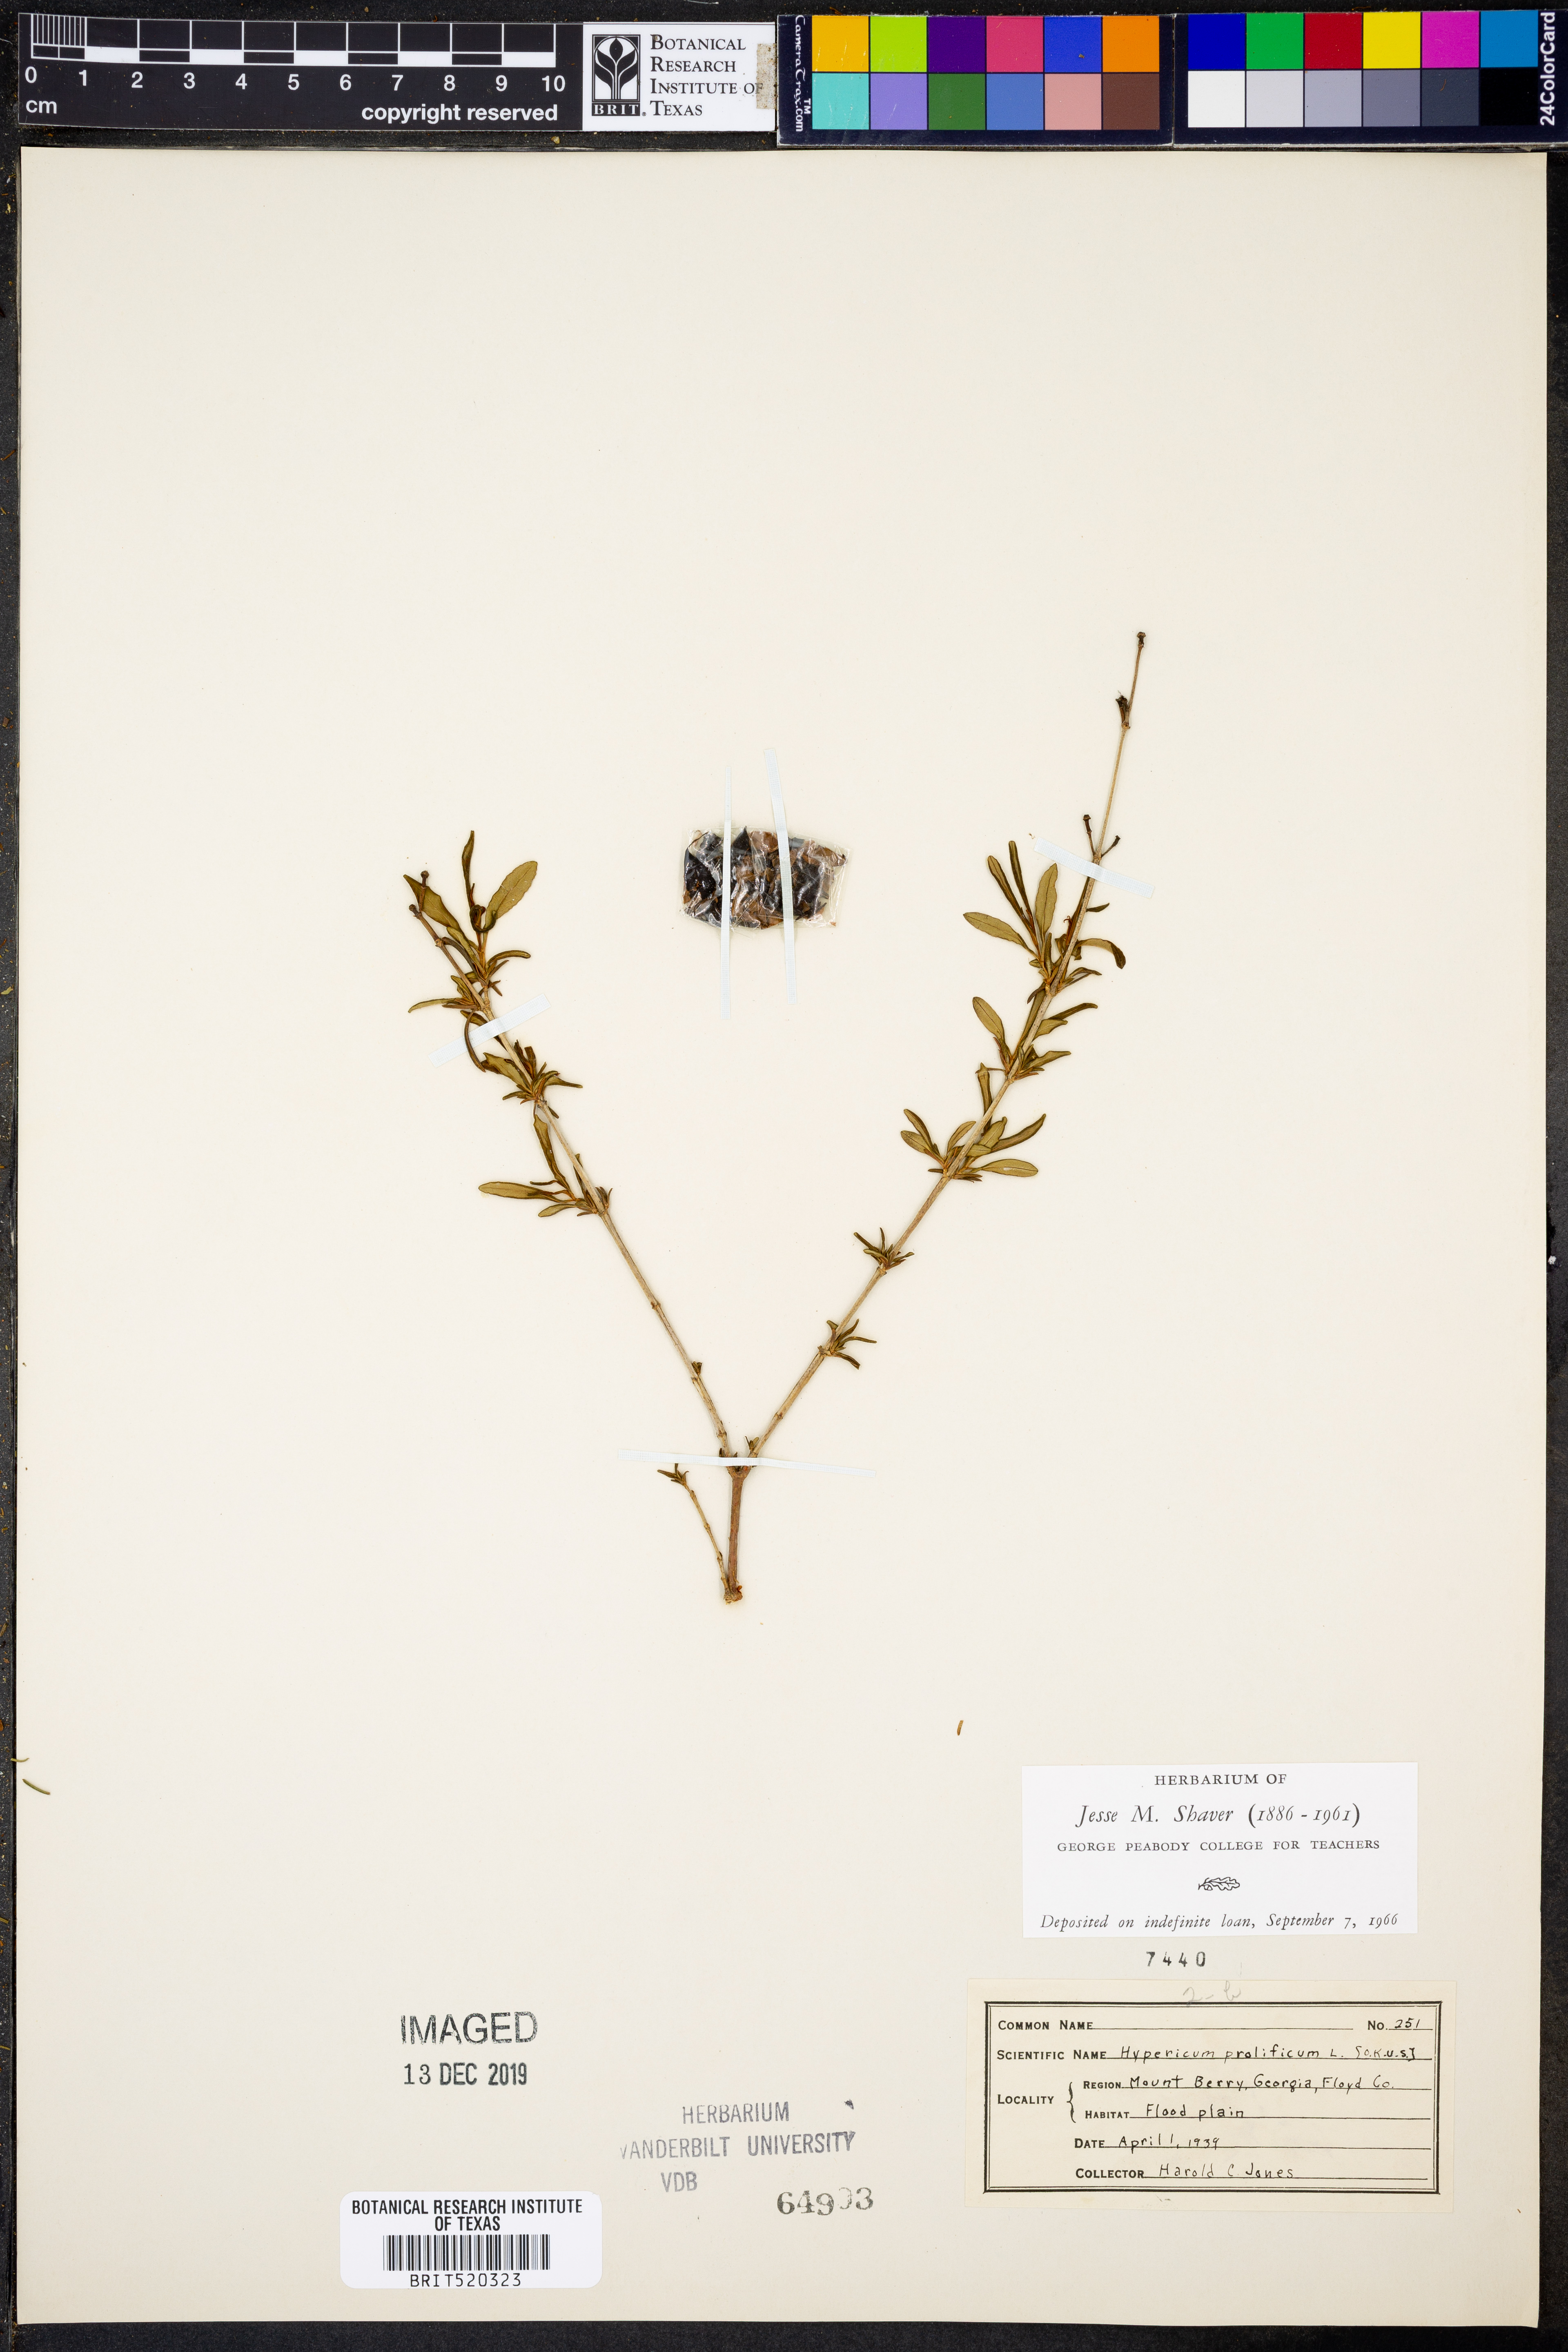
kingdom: Plantae
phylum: Tracheophyta
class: Magnoliopsida
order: Malpighiales
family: Hypericaceae
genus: Hypericum
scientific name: Hypericum prolificum
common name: Shrubby st. john's-wort
